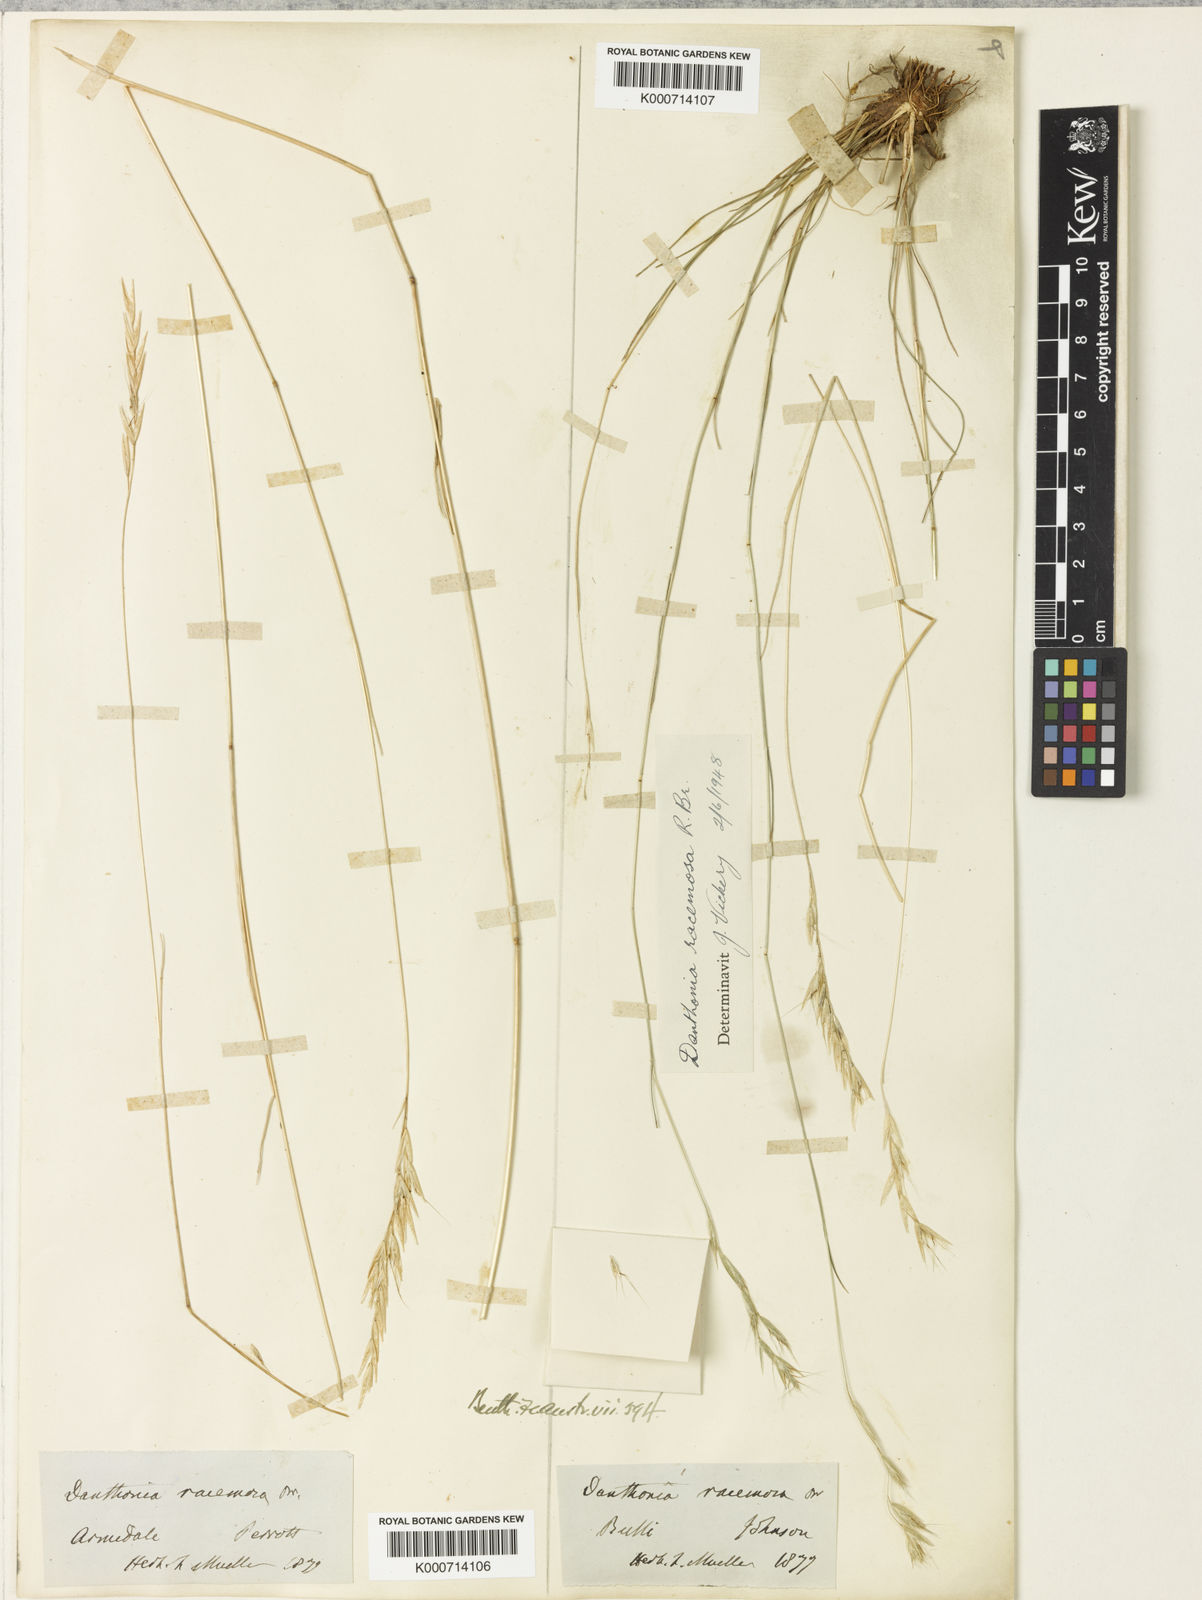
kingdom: Plantae
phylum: Tracheophyta
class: Liliopsida
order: Poales
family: Poaceae
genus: Rytidosperma
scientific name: Rytidosperma racemosum
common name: Wallaby-grass
